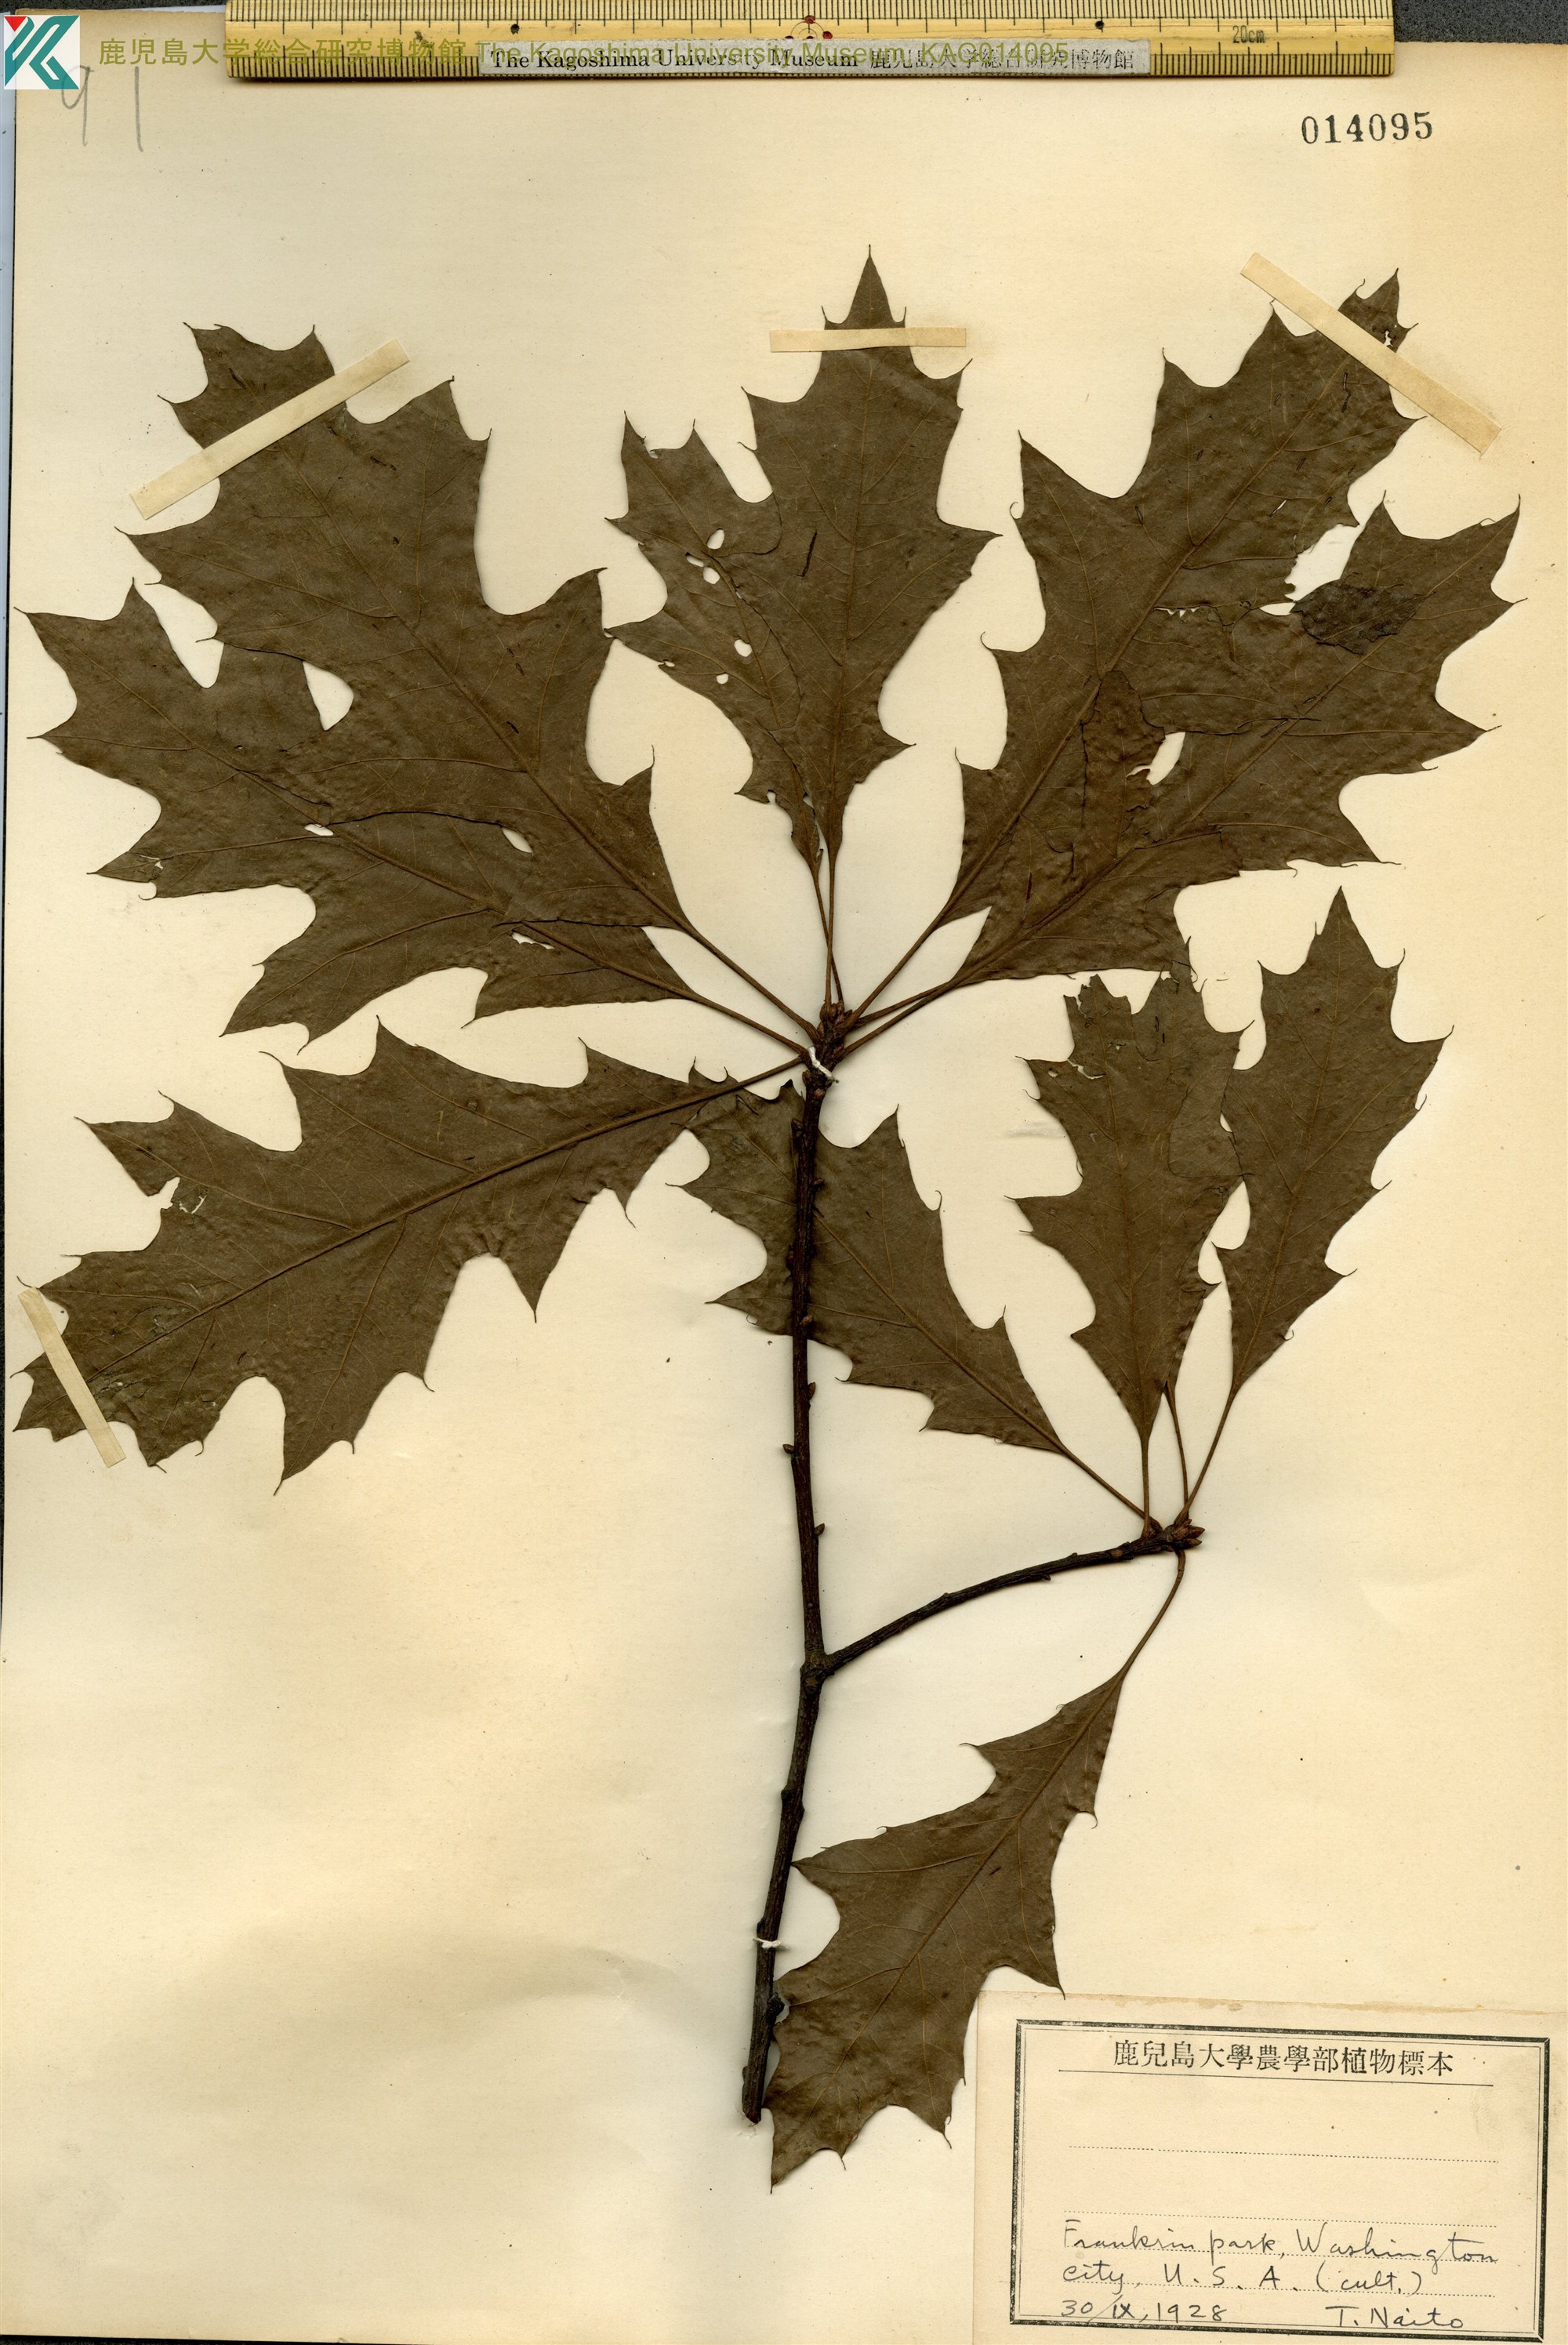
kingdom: Plantae
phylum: Tracheophyta
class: Magnoliopsida
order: Fagales
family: Fagaceae
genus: Quercus
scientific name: Quercus palustris
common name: Pin oak
